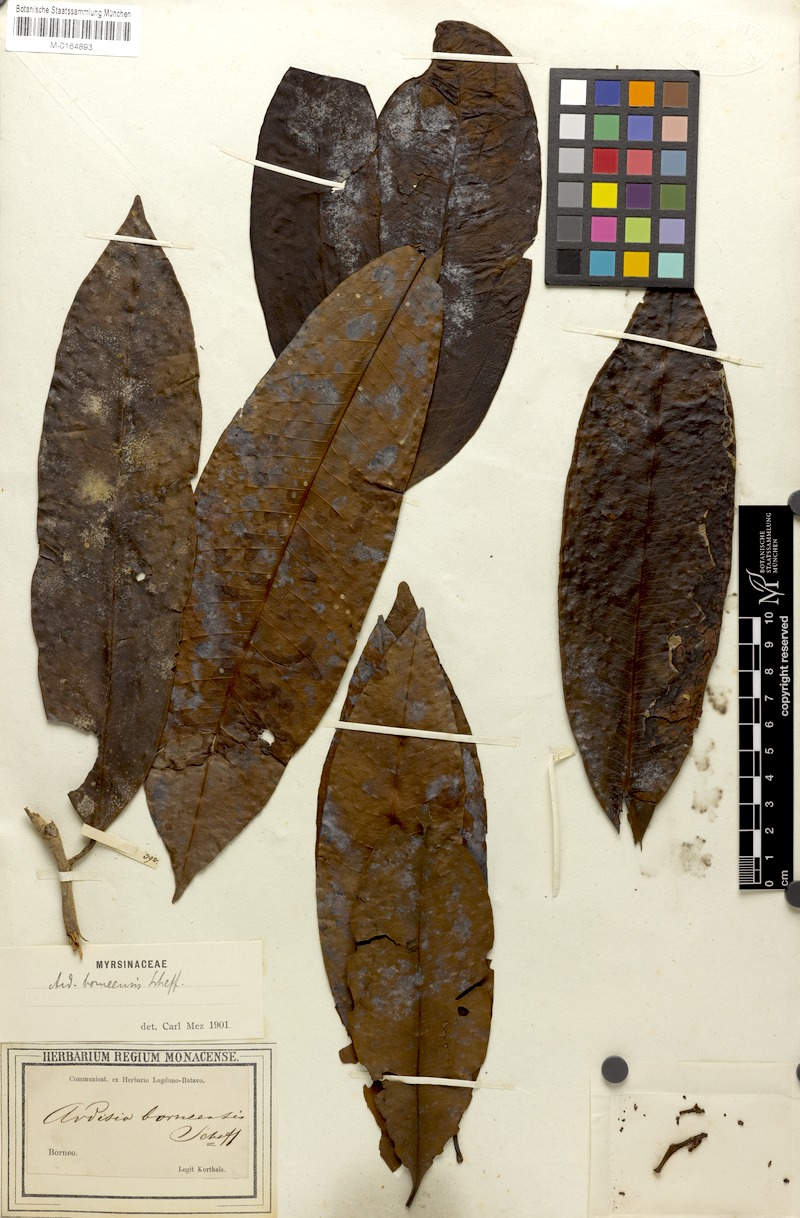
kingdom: Plantae
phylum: Tracheophyta
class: Magnoliopsida
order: Ericales
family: Primulaceae
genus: Ardisia
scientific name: Ardisia borneensis
